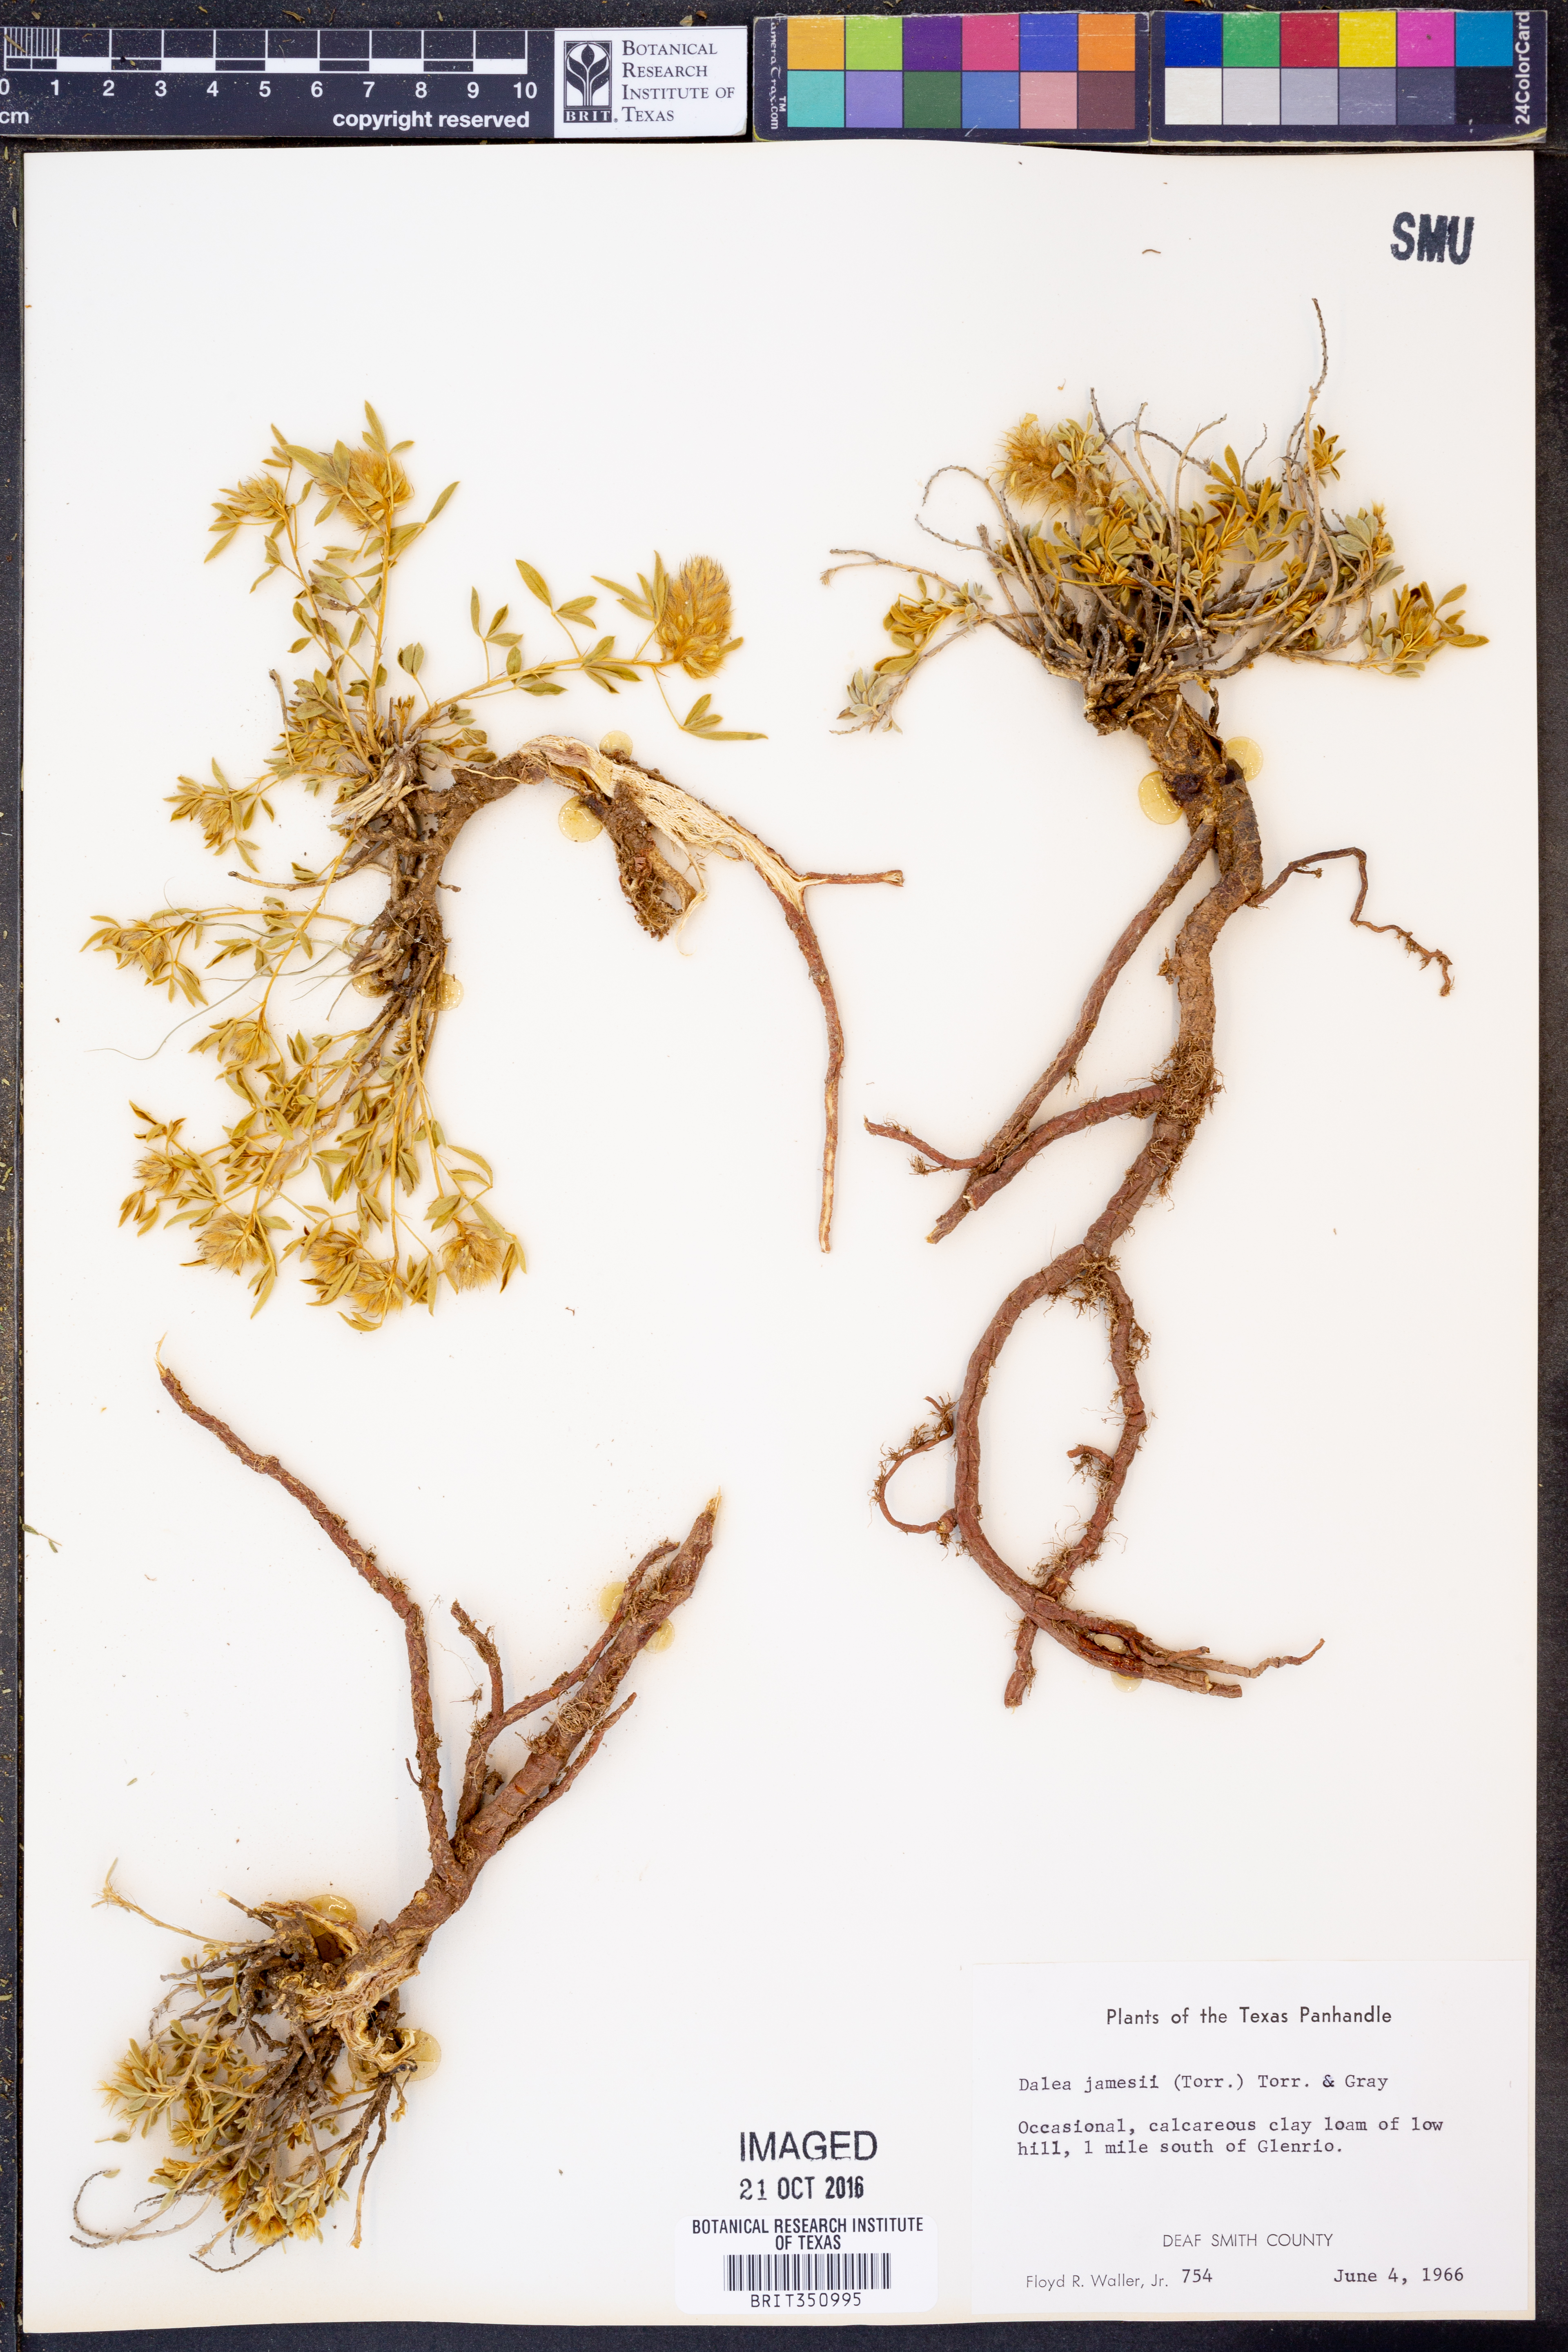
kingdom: Plantae
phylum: Tracheophyta
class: Magnoliopsida
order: Fabales
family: Fabaceae
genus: Dalea
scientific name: Dalea jamesii
